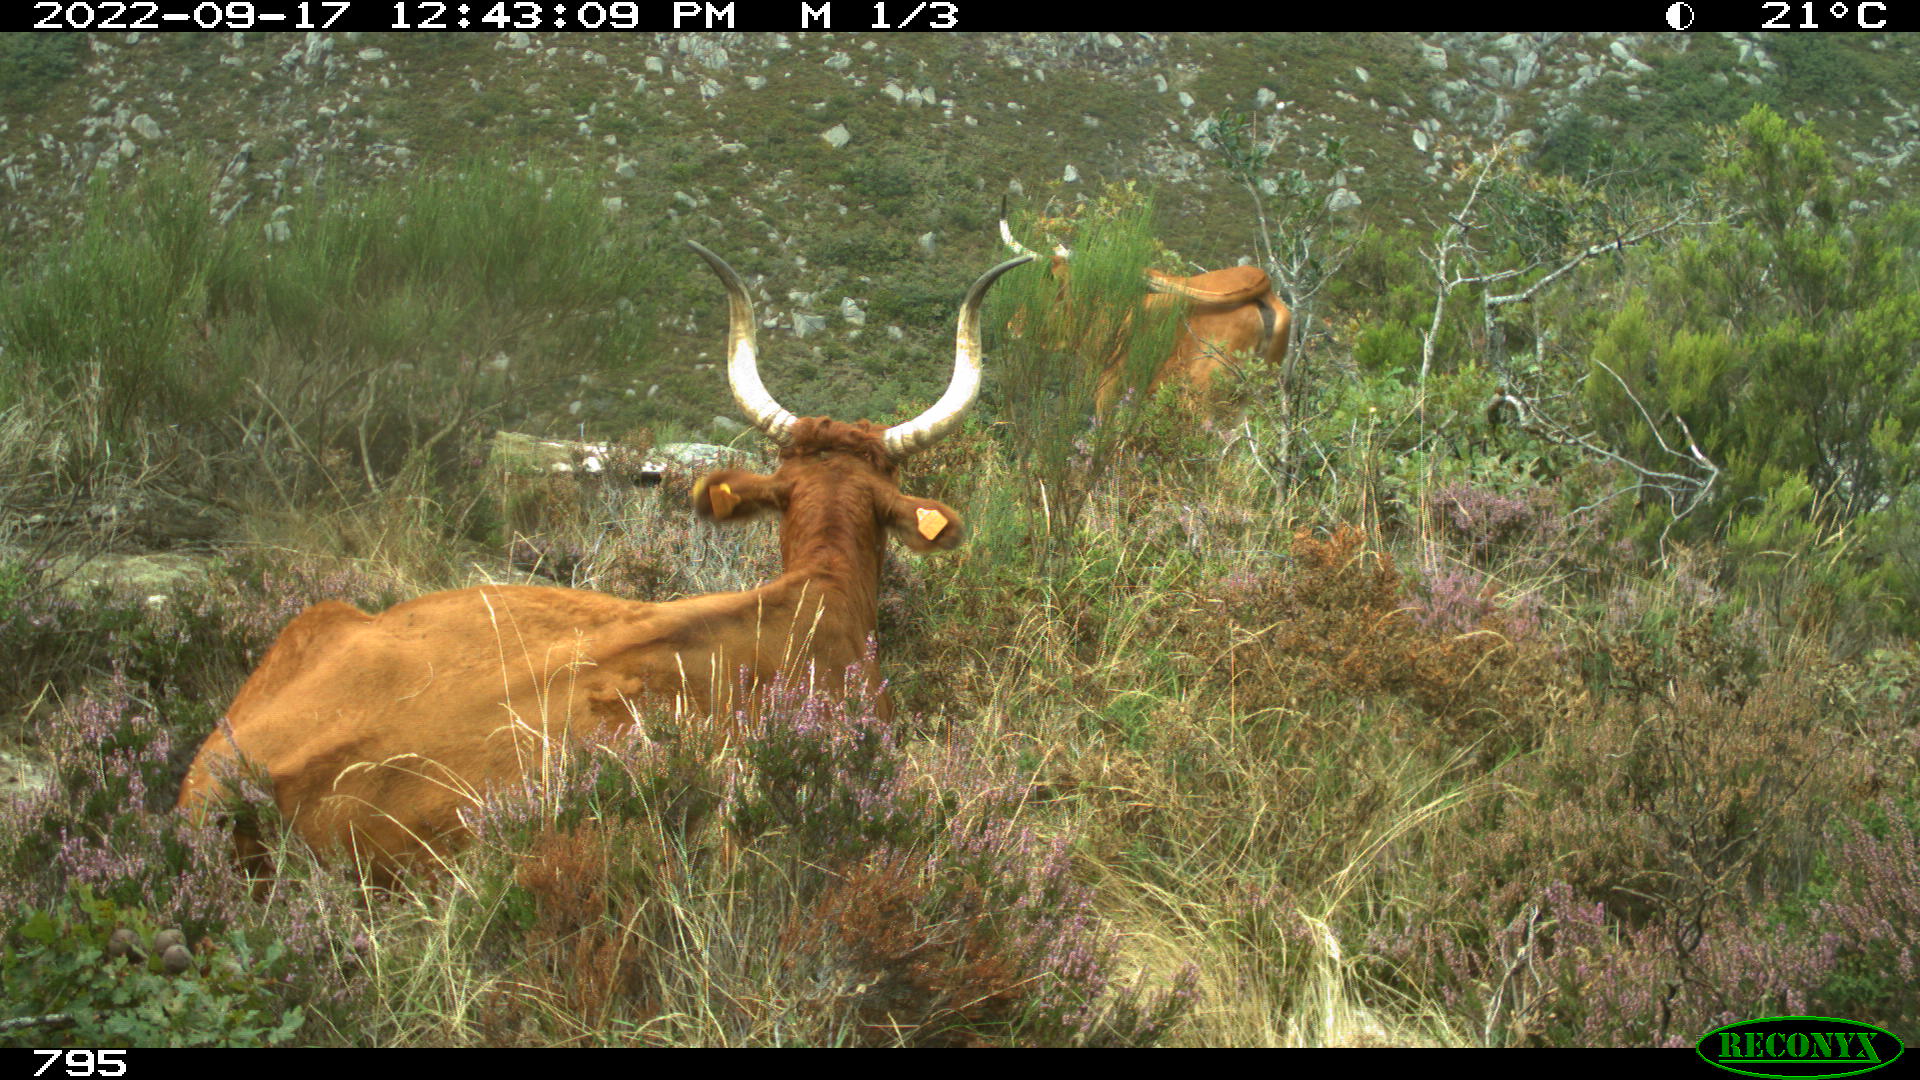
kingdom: Animalia
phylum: Chordata
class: Mammalia
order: Artiodactyla
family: Bovidae
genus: Bos
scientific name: Bos taurus
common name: Domesticated cattle
